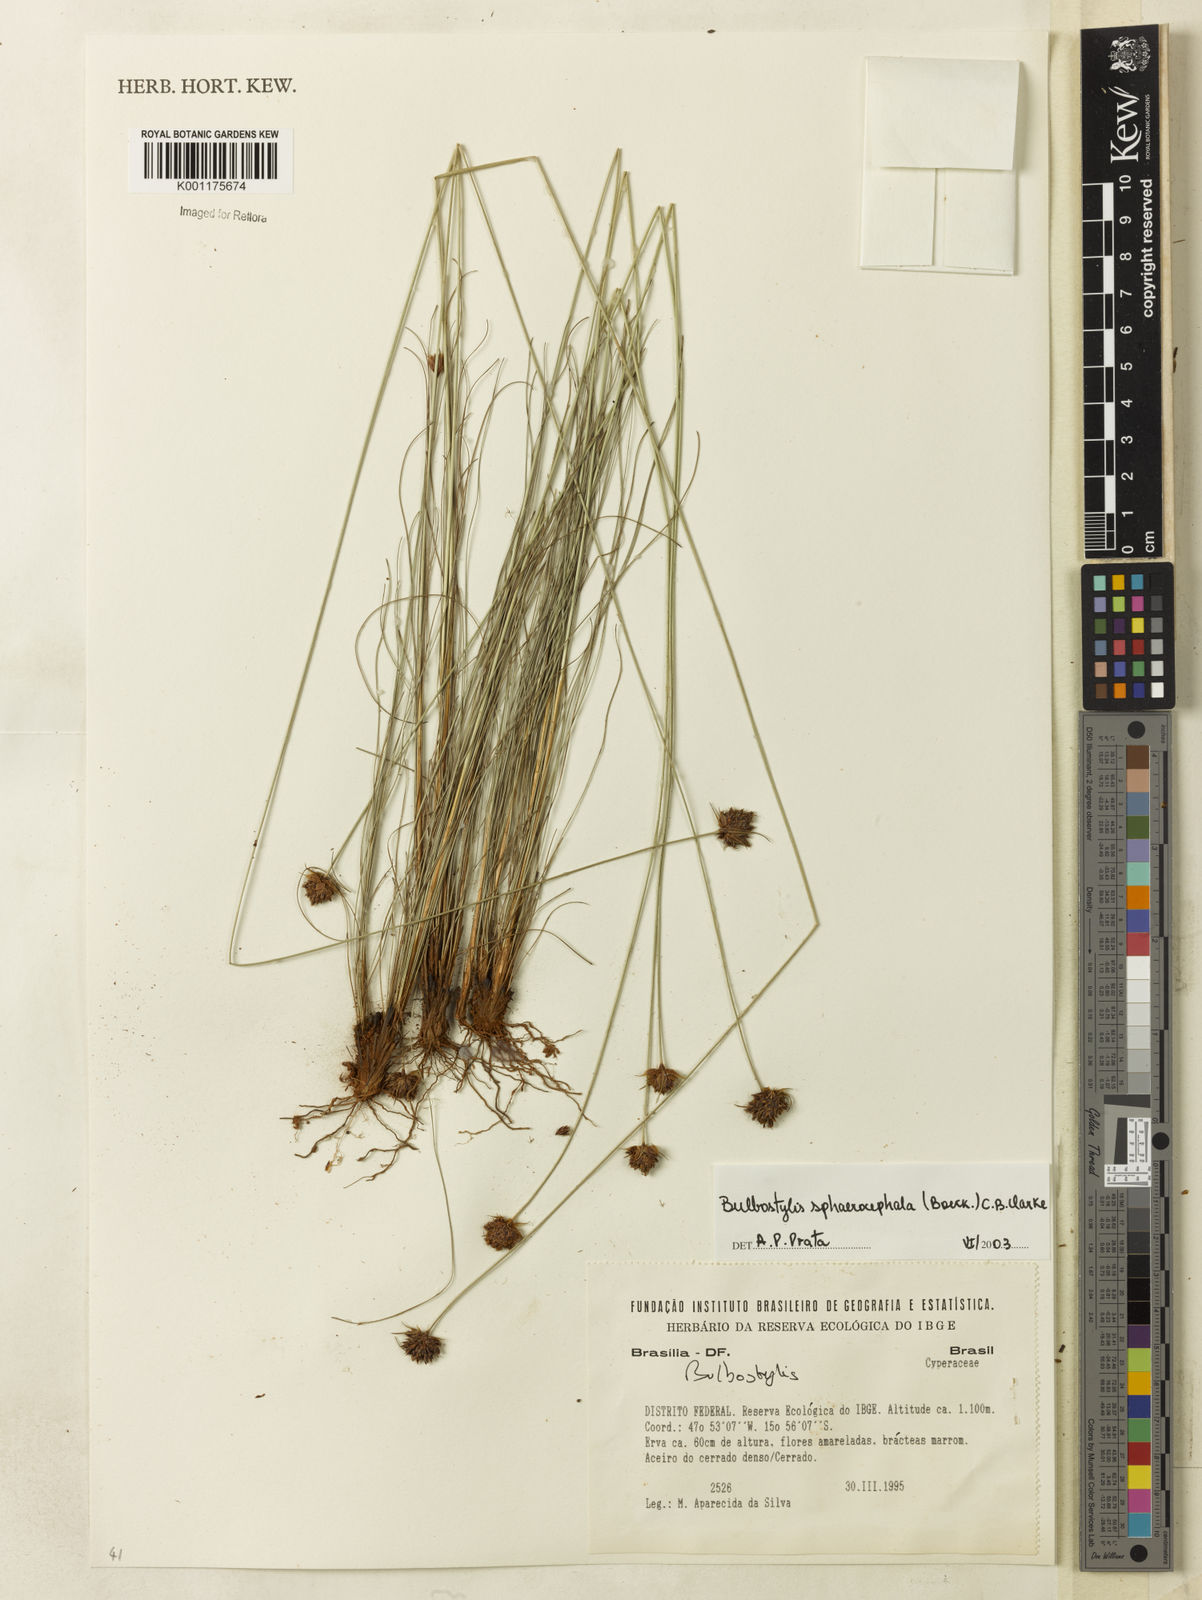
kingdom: Plantae
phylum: Tracheophyta
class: Liliopsida
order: Poales
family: Cyperaceae
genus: Bulbostylis
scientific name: Bulbostylis sphaerocephala
